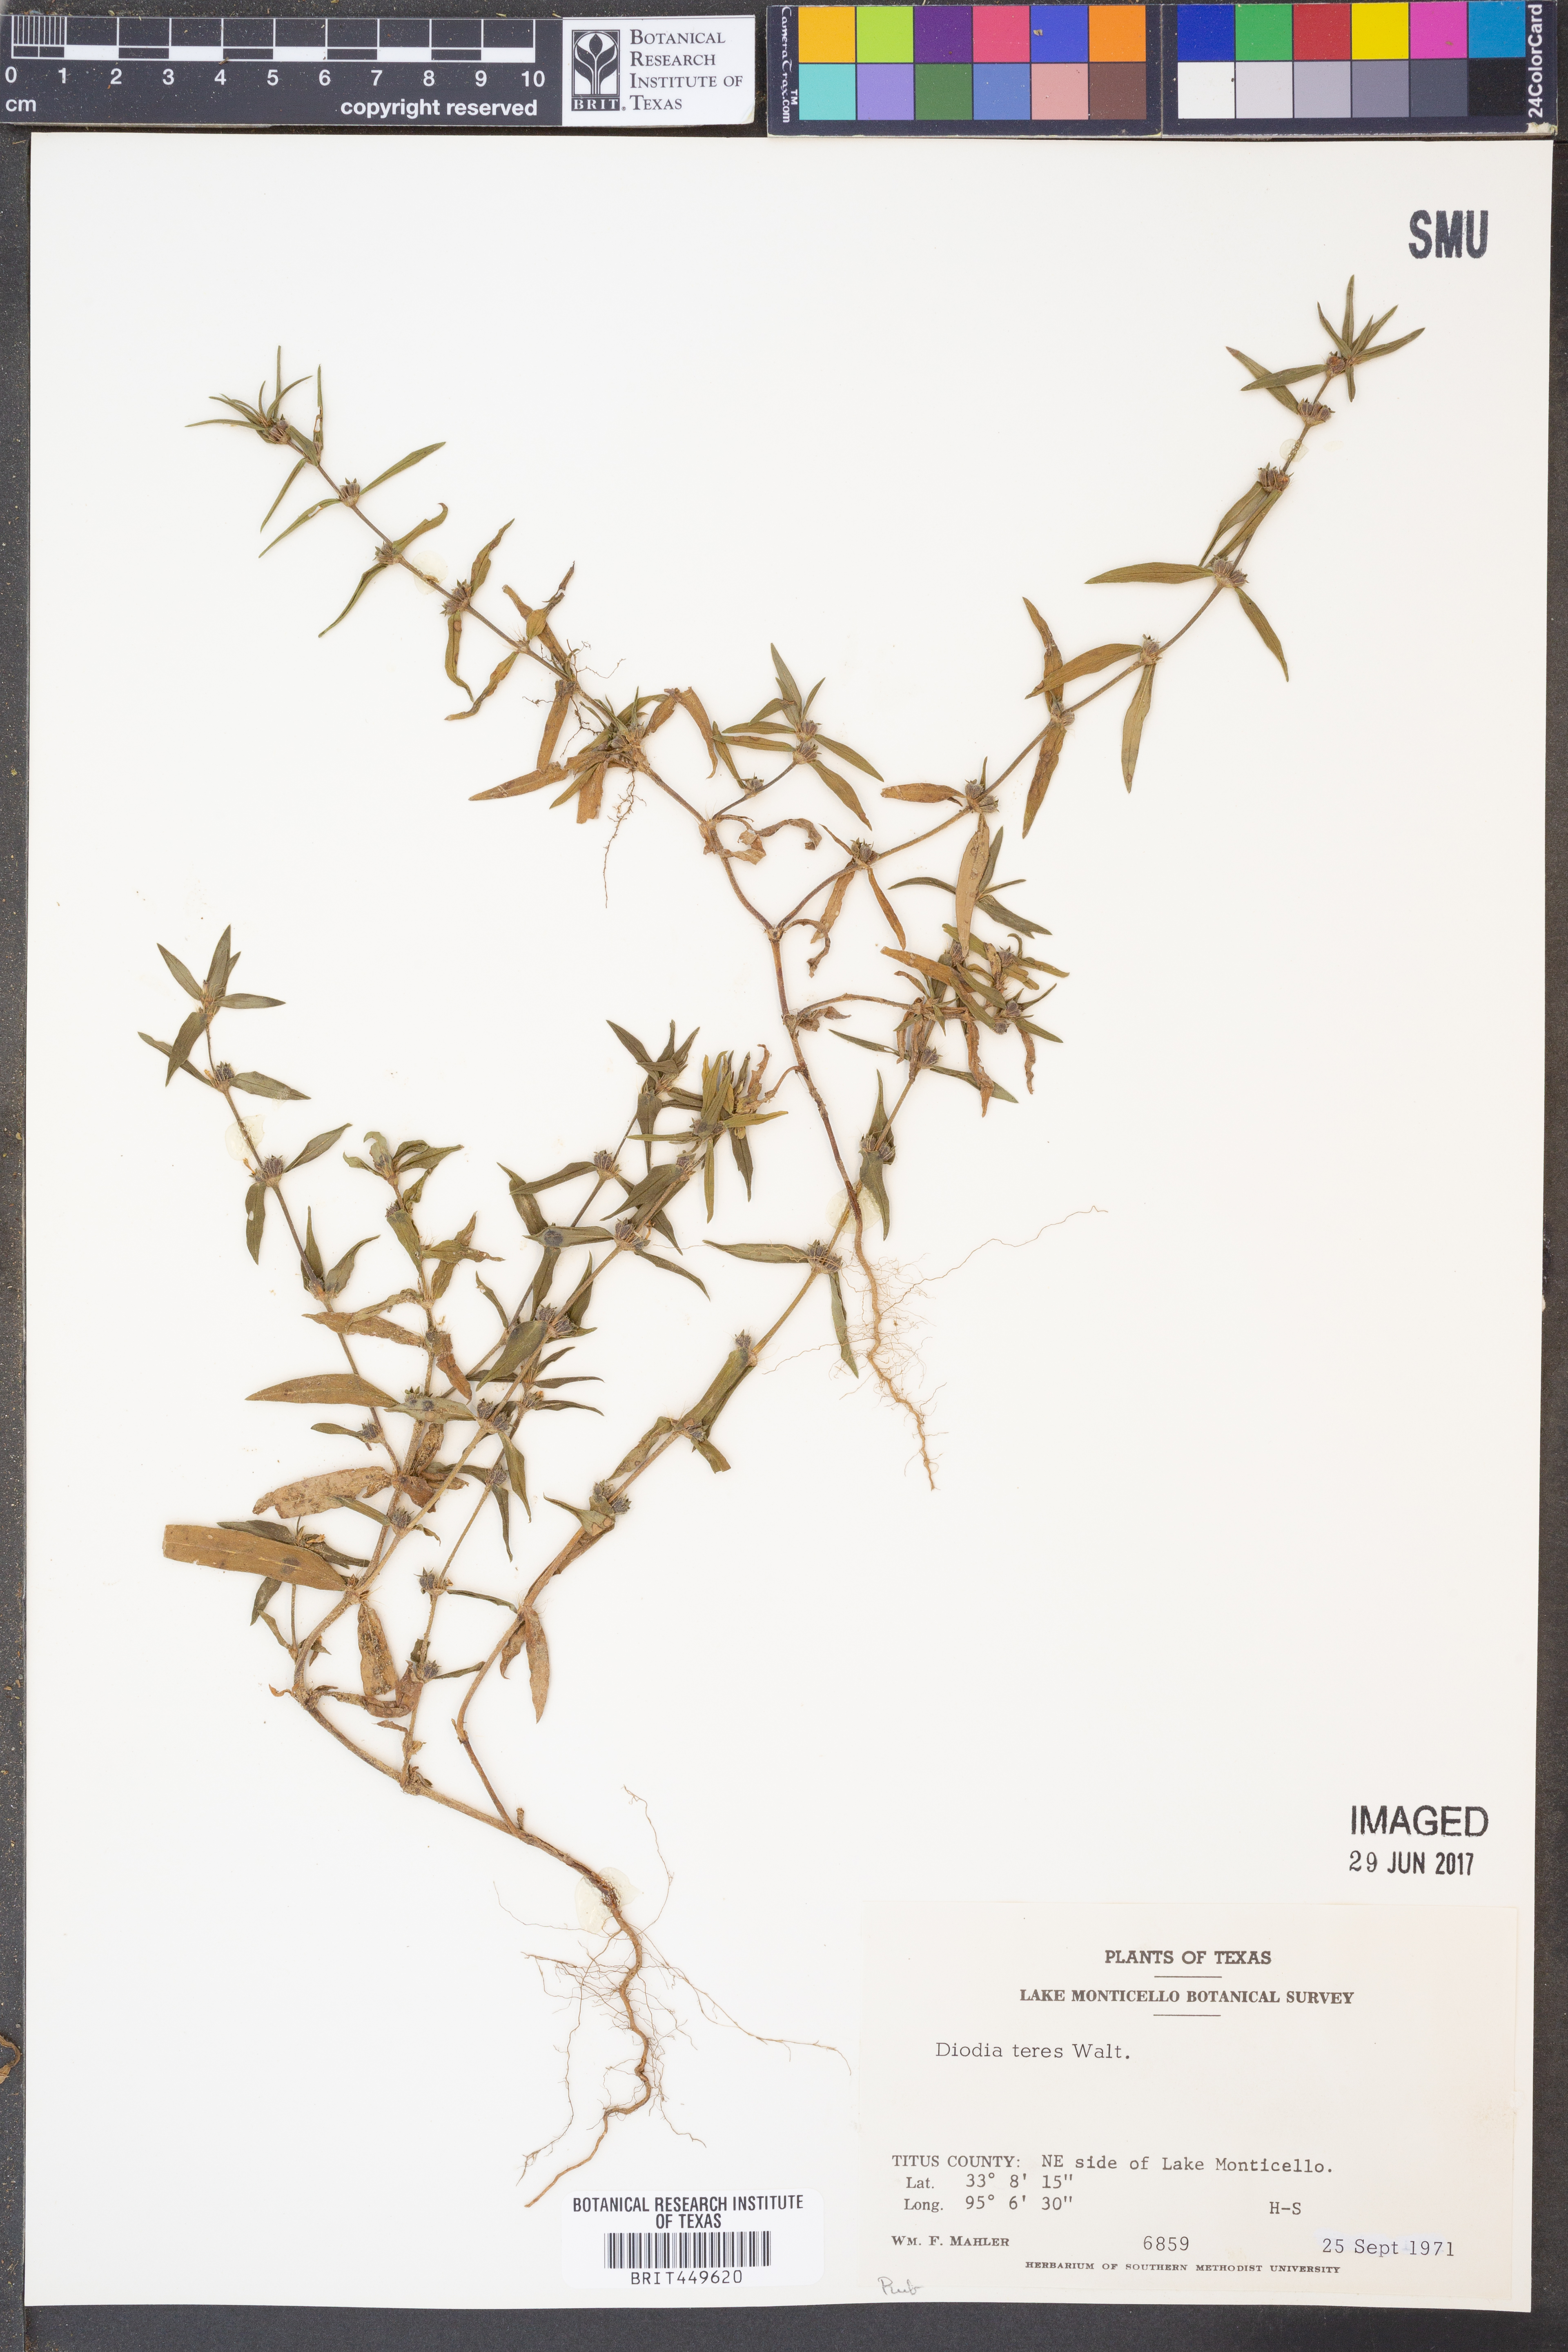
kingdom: Plantae
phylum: Tracheophyta
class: Magnoliopsida
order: Gentianales
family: Rubiaceae
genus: Hexasepalum
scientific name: Hexasepalum teres
